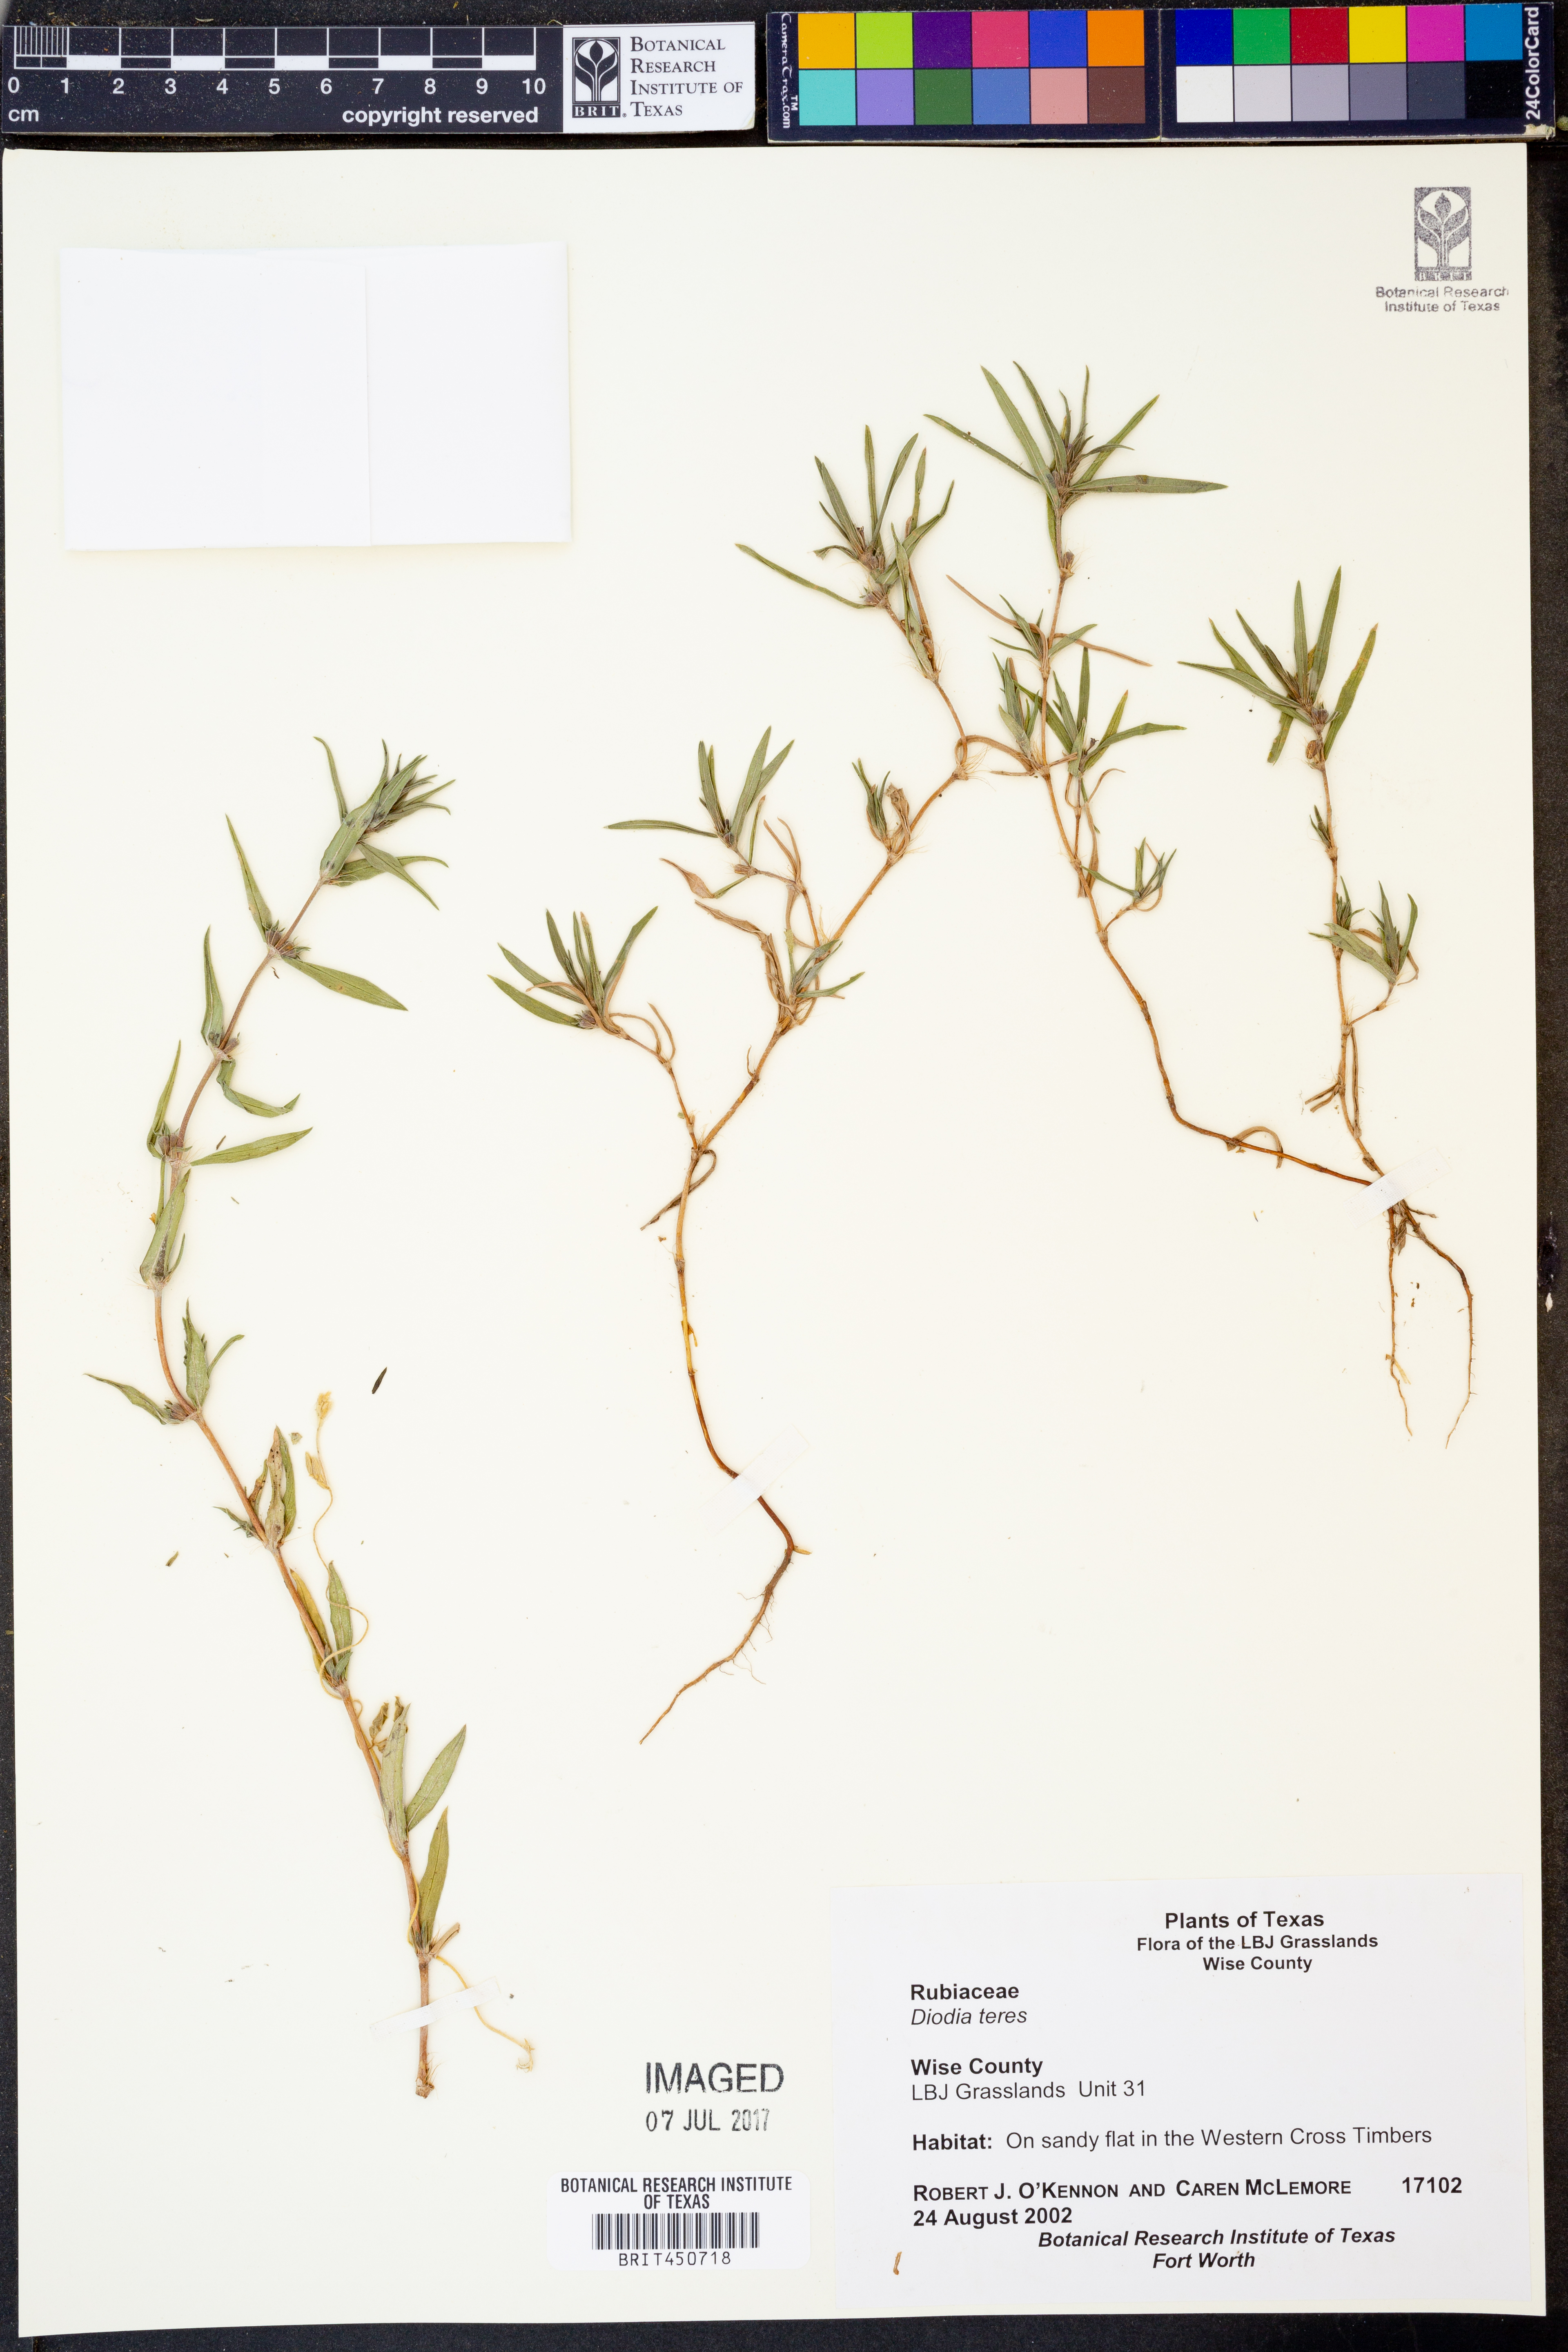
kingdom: Plantae
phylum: Tracheophyta
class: Magnoliopsida
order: Gentianales
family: Rubiaceae
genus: Hexasepalum
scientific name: Hexasepalum teres
